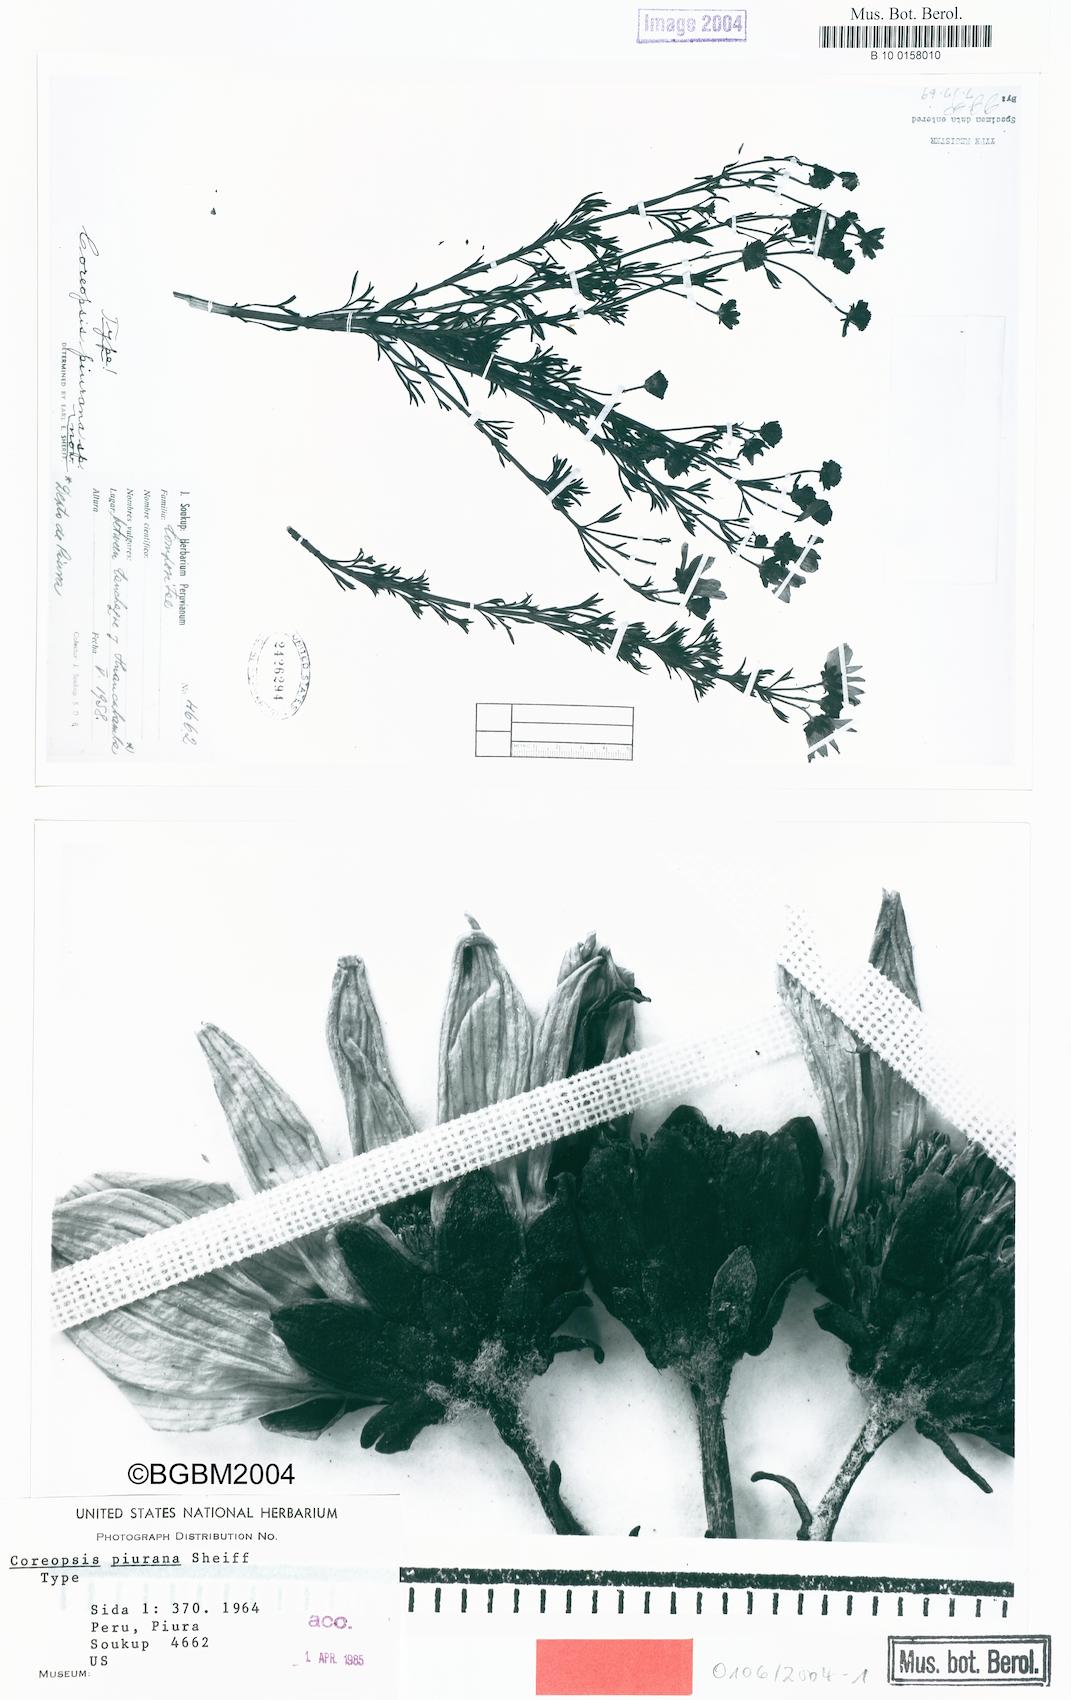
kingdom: Plantae
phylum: Tracheophyta
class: Magnoliopsida
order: Asterales
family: Asteraceae
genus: Coreopsis
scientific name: Coreopsis piurana
